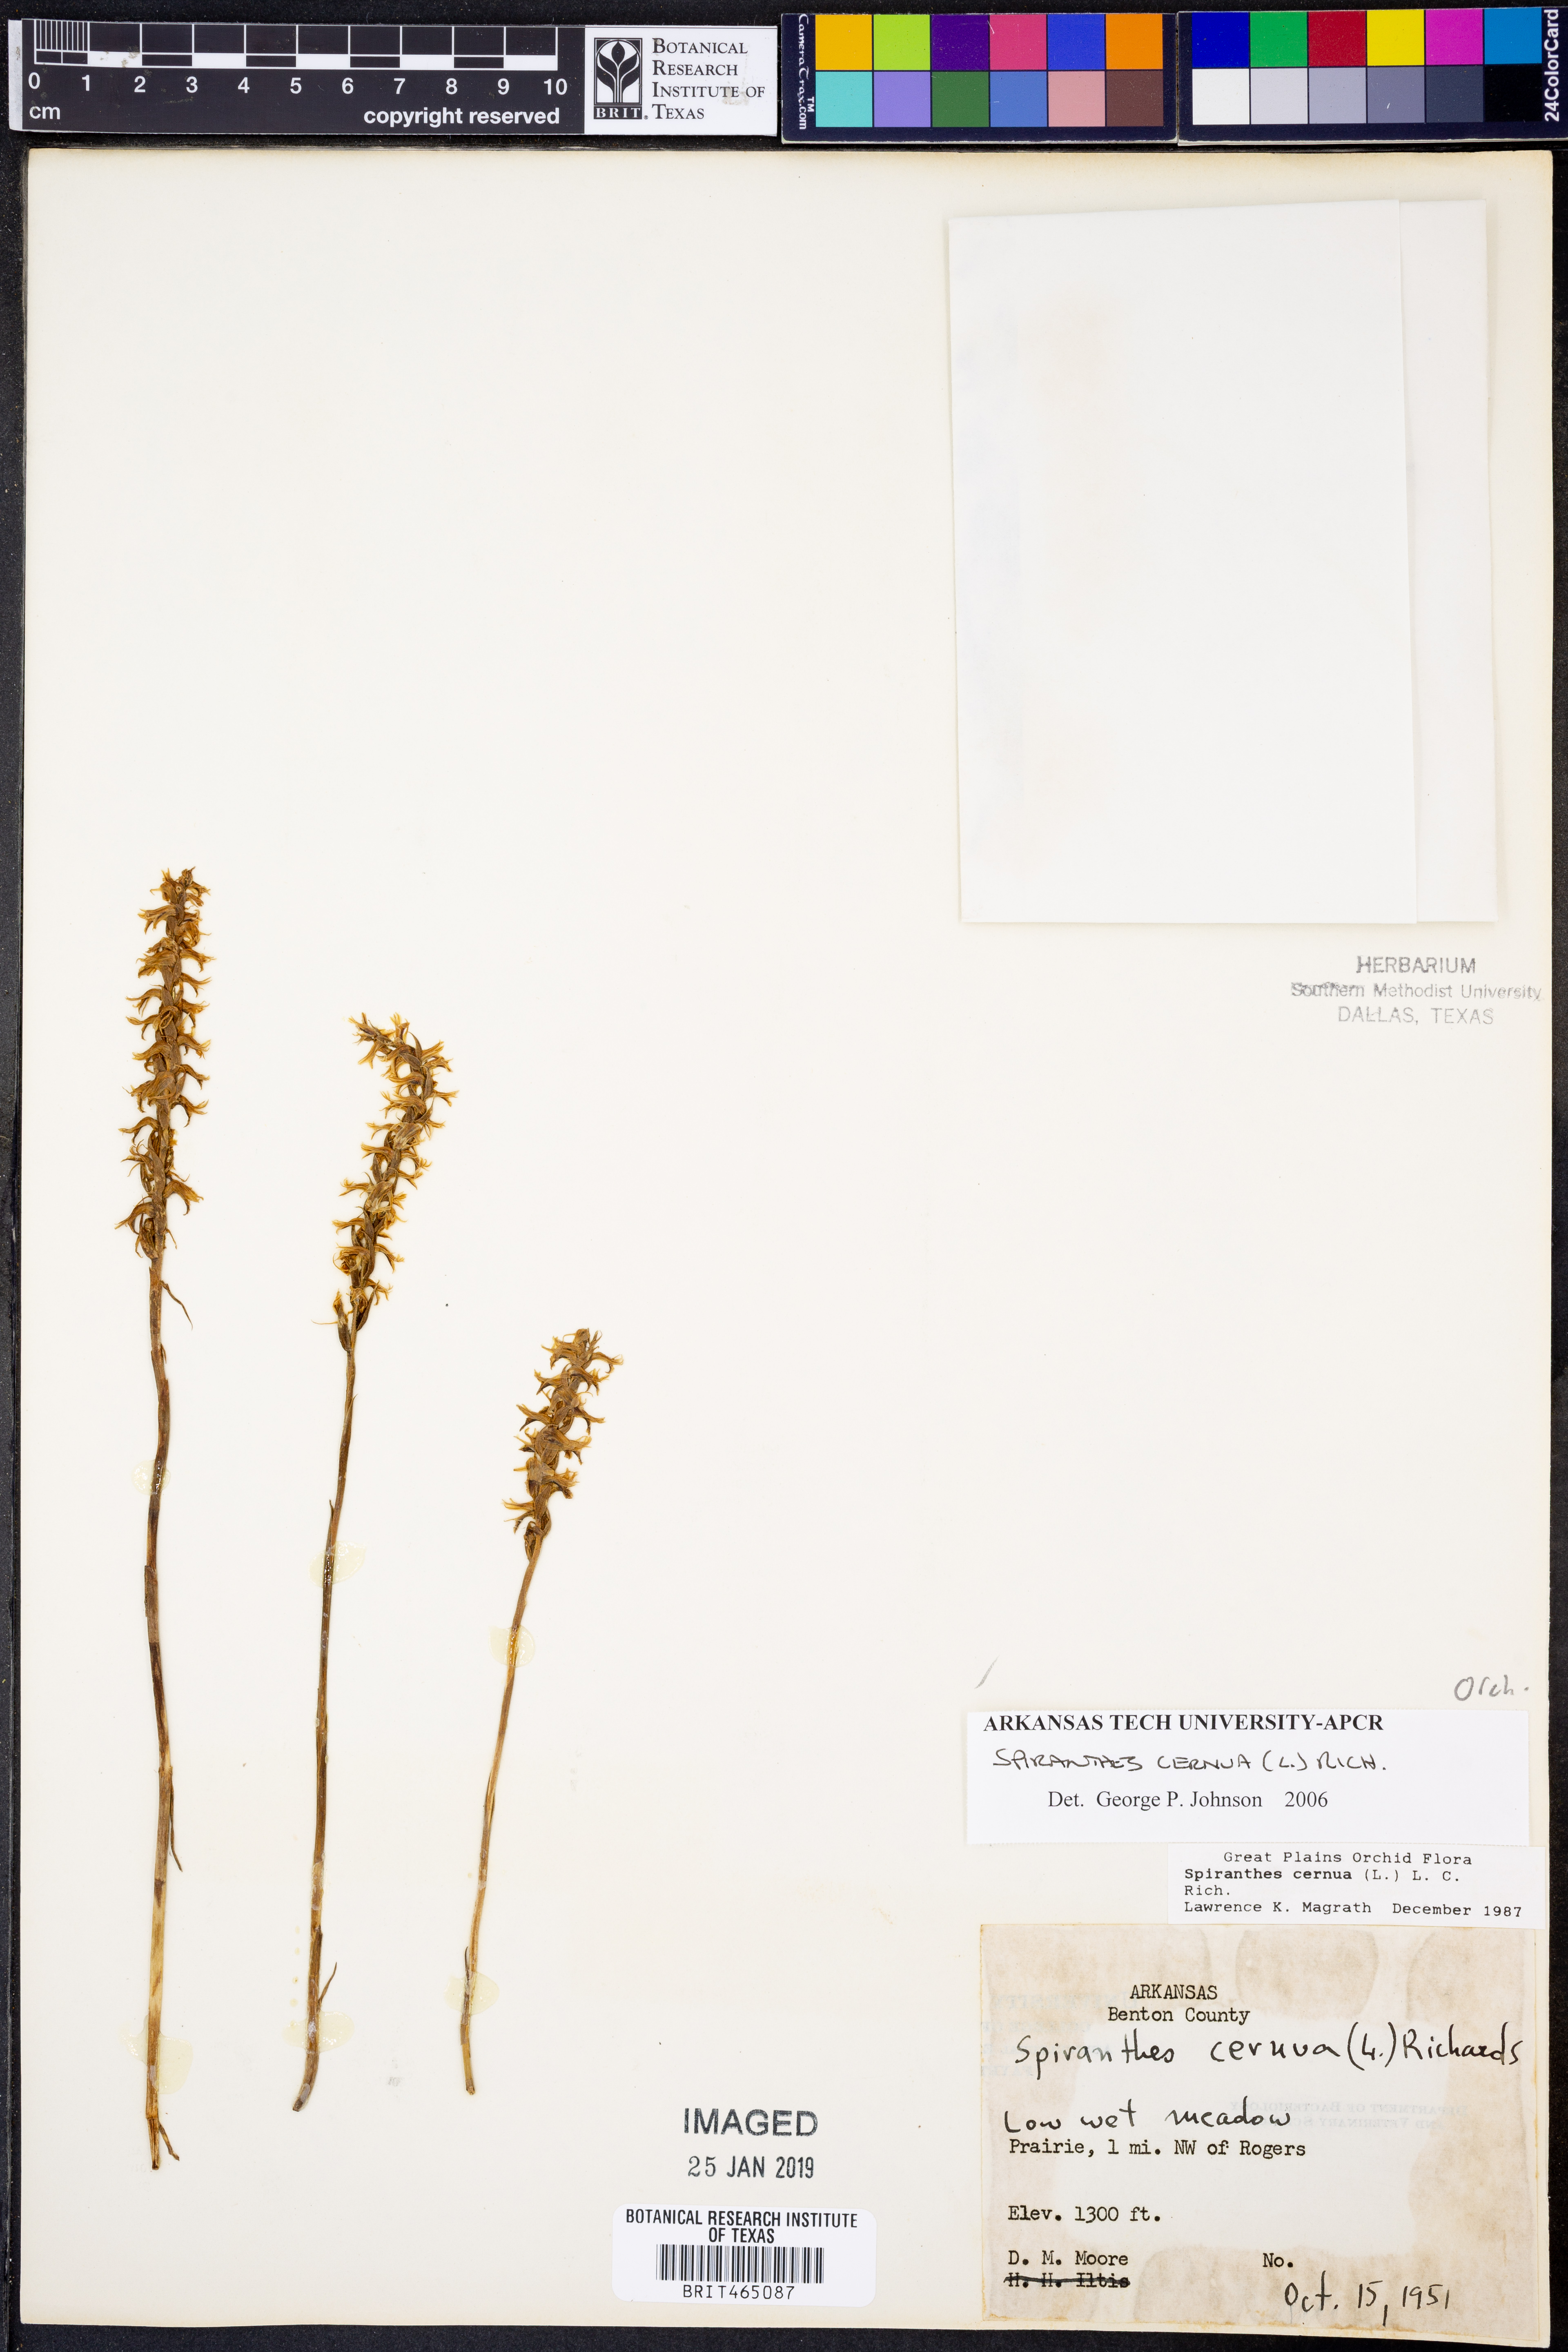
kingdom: Plantae
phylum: Tracheophyta
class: Liliopsida
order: Asparagales
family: Orchidaceae
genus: Spiranthes
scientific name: Spiranthes cernua
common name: Dropping ladies'-tresses
